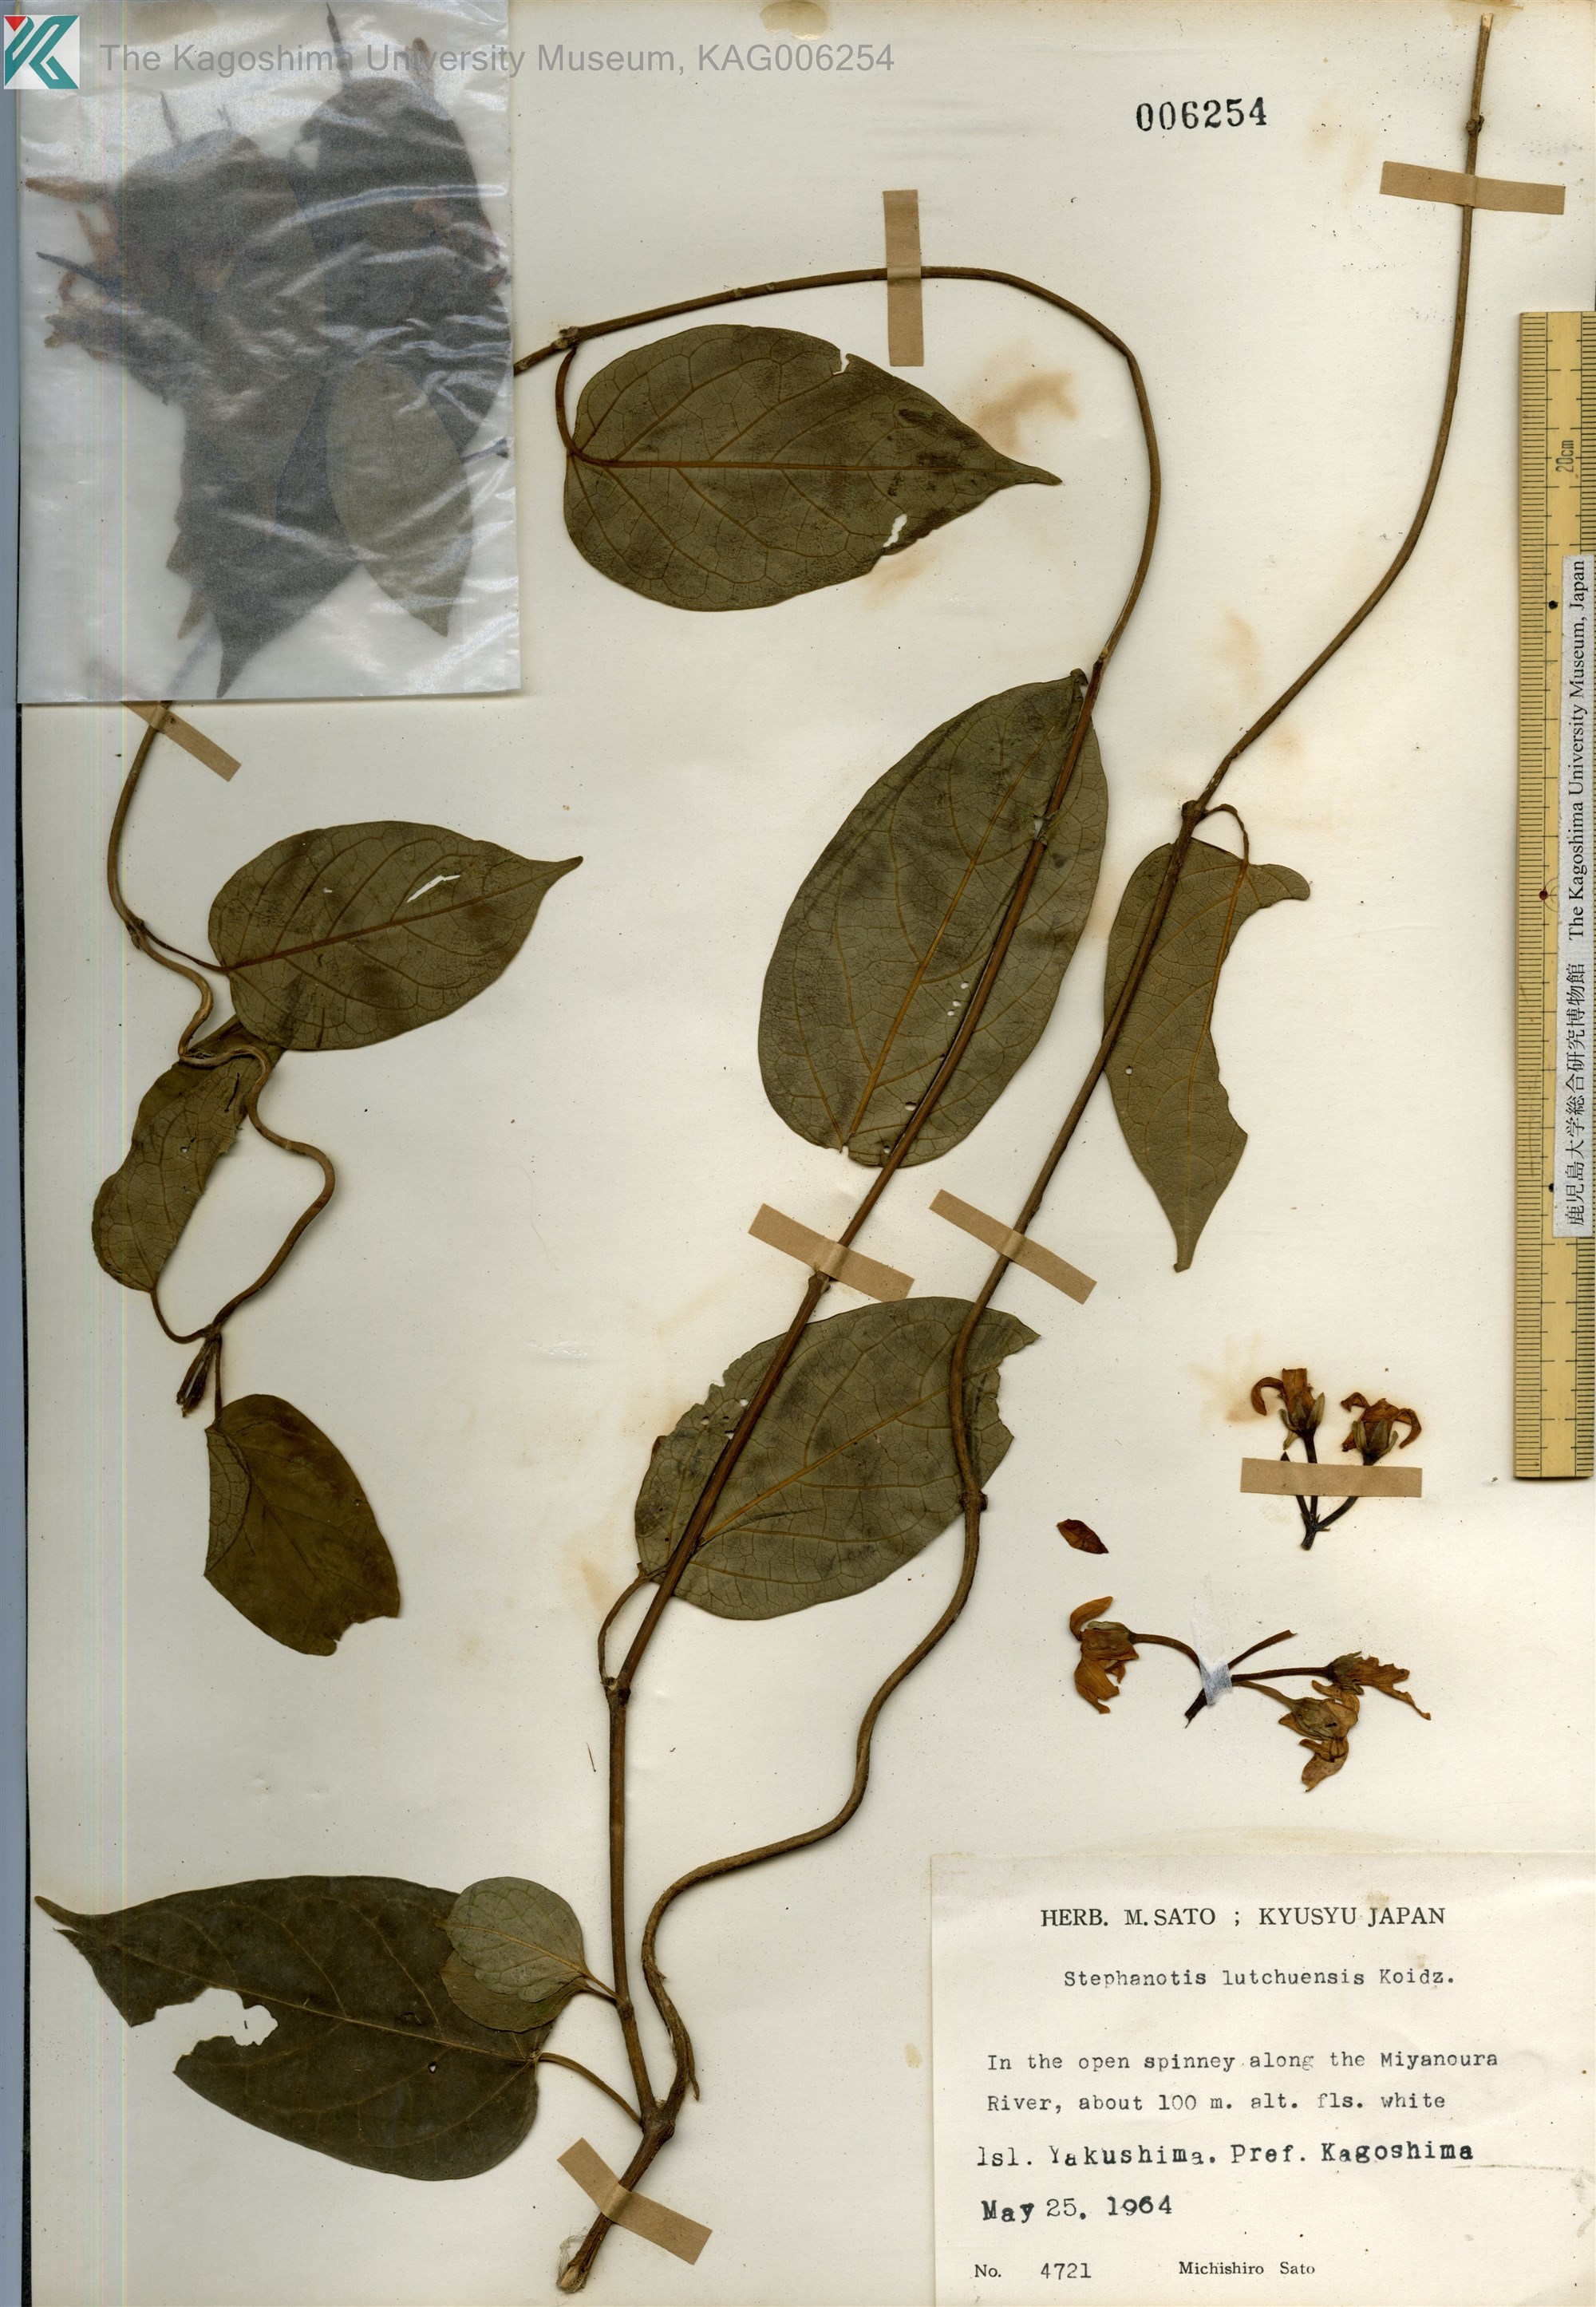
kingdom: Plantae
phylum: Tracheophyta
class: Magnoliopsida
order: Gentianales
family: Apocynaceae
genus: Jasminanthes
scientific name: Jasminanthes mucronata
